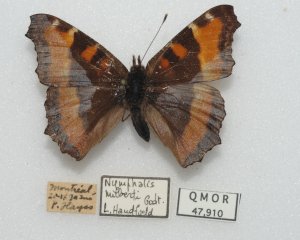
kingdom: Animalia
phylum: Arthropoda
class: Insecta
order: Lepidoptera
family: Nymphalidae
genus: Aglais
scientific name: Aglais milberti
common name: Milbert's Tortoiseshell
